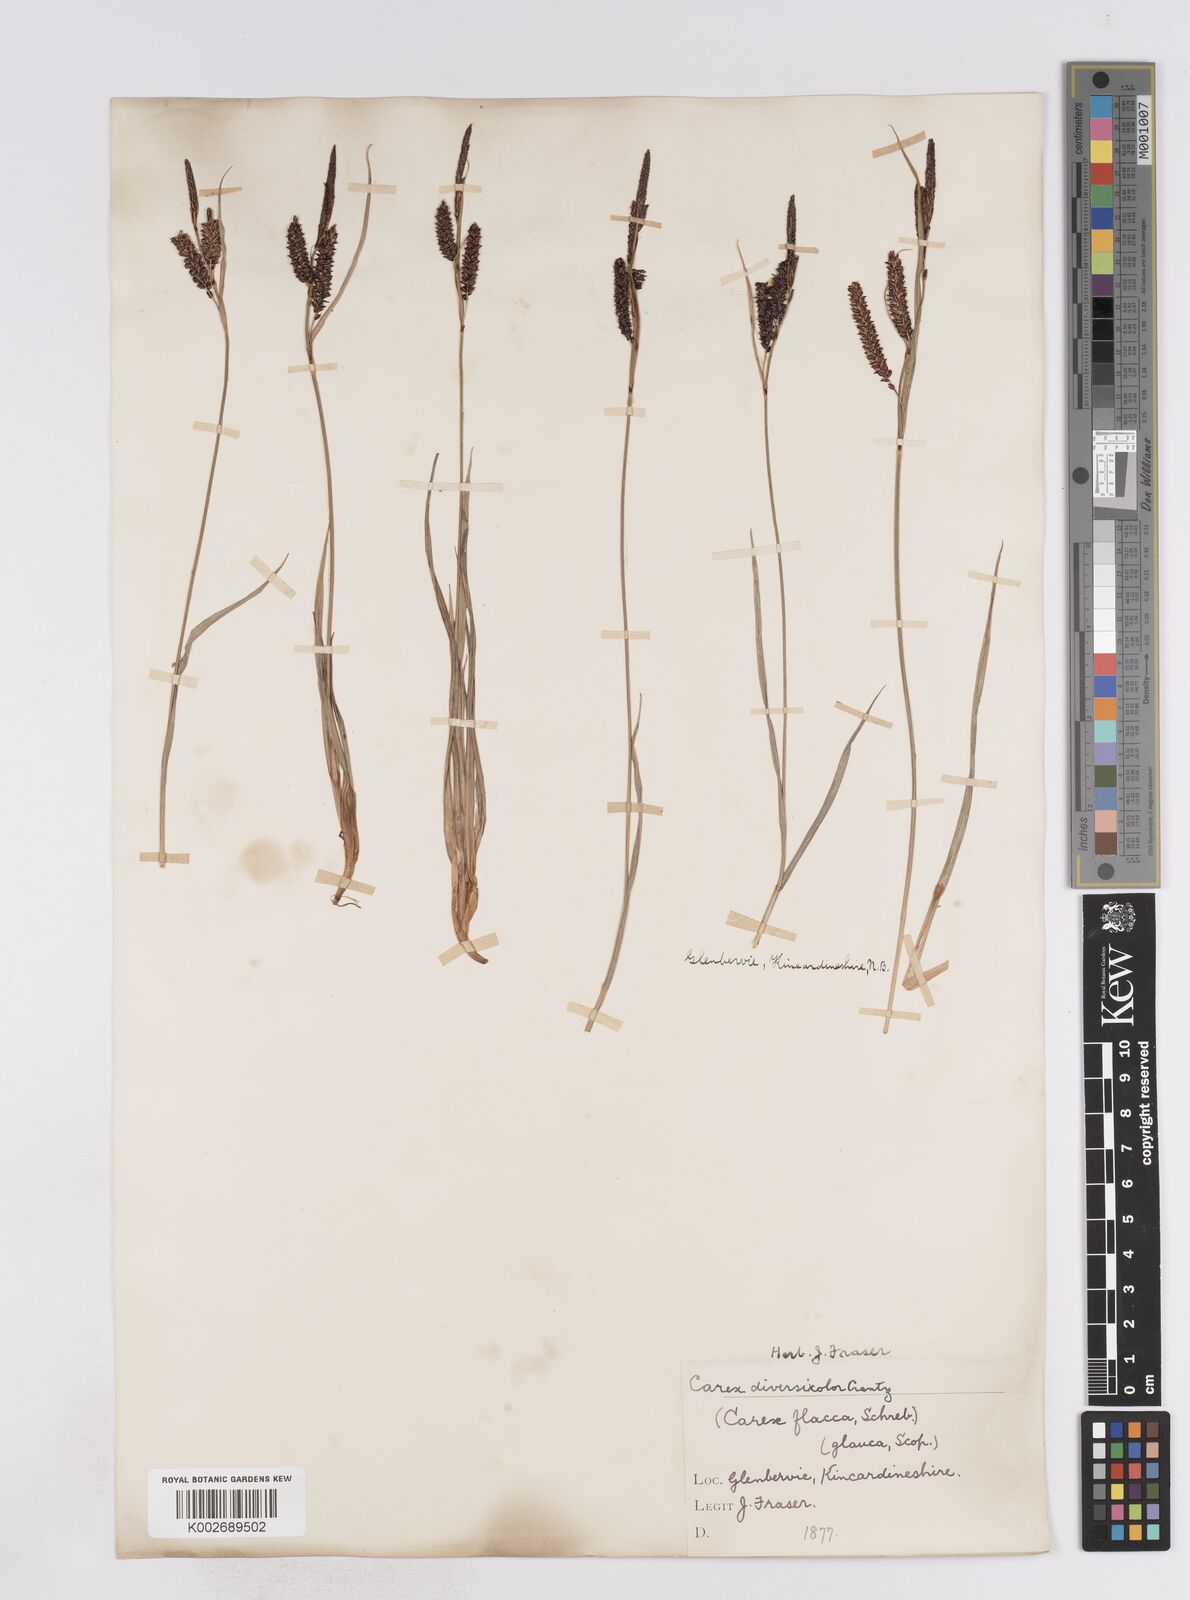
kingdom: Plantae
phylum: Tracheophyta
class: Liliopsida
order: Poales
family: Cyperaceae
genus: Carex
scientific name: Carex flacca
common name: Glaucous sedge
